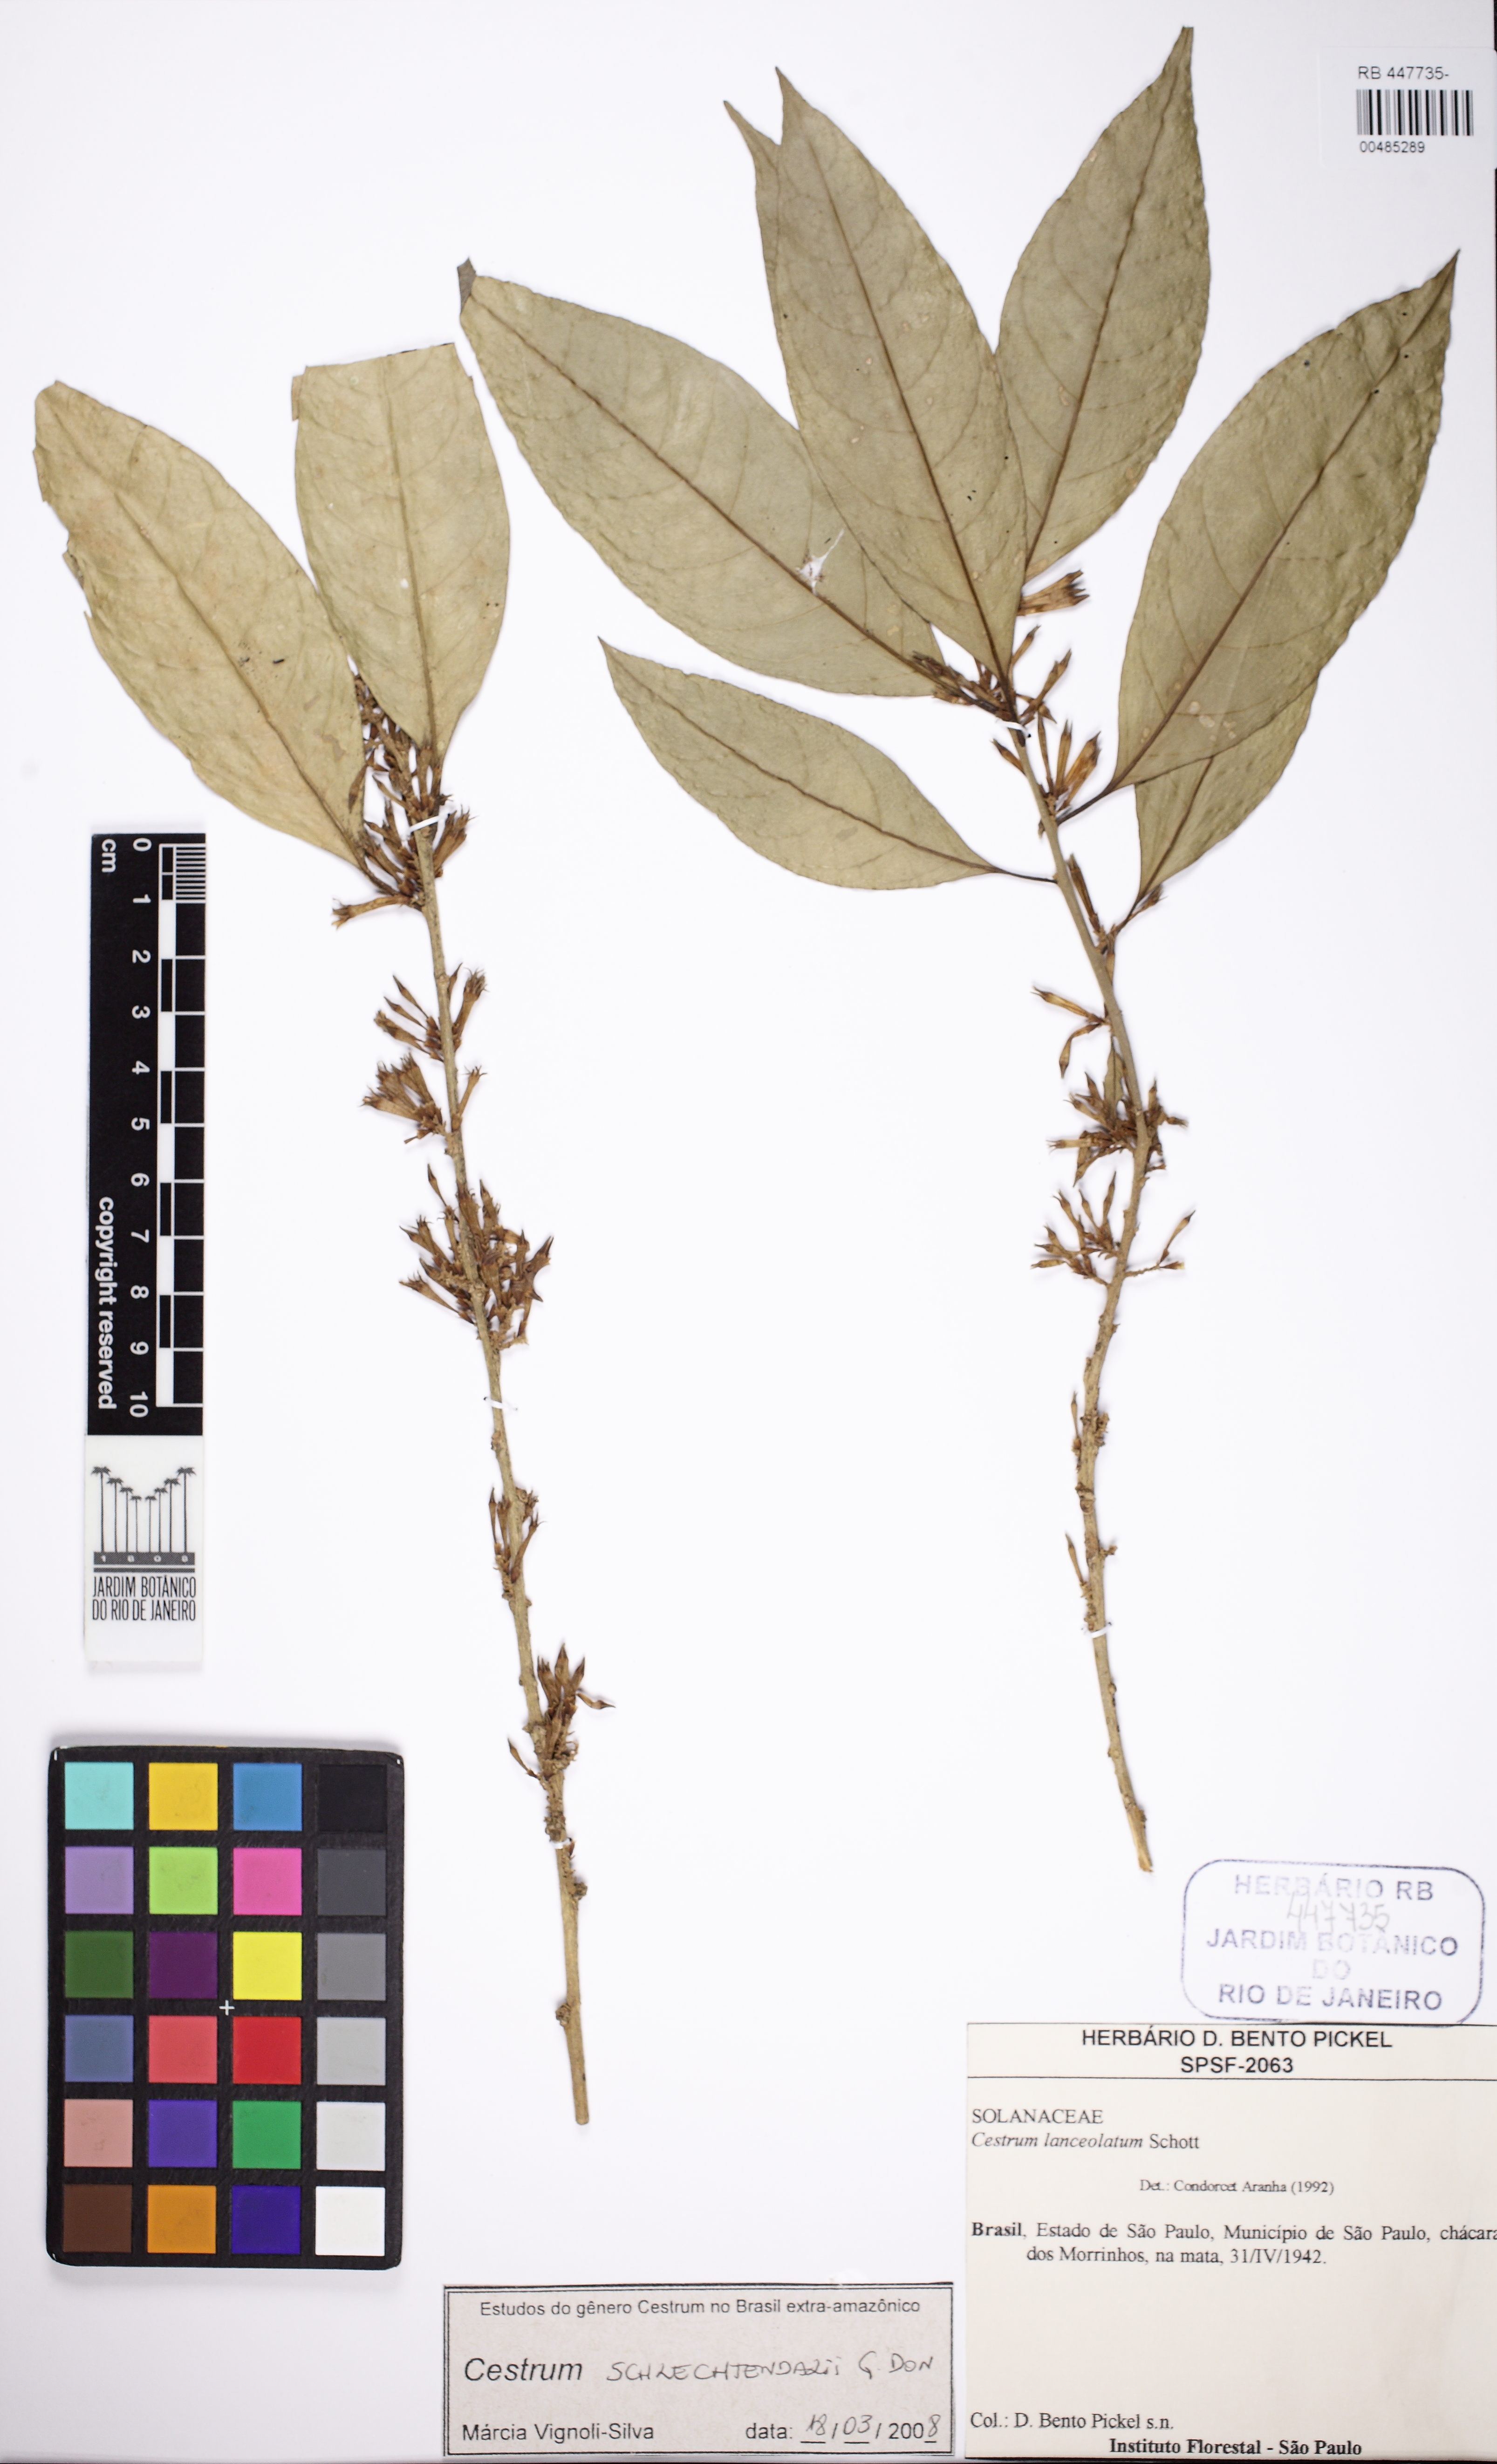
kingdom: Plantae
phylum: Tracheophyta
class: Magnoliopsida
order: Solanales
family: Solanaceae
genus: Cestrum
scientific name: Cestrum schlechtendalii
